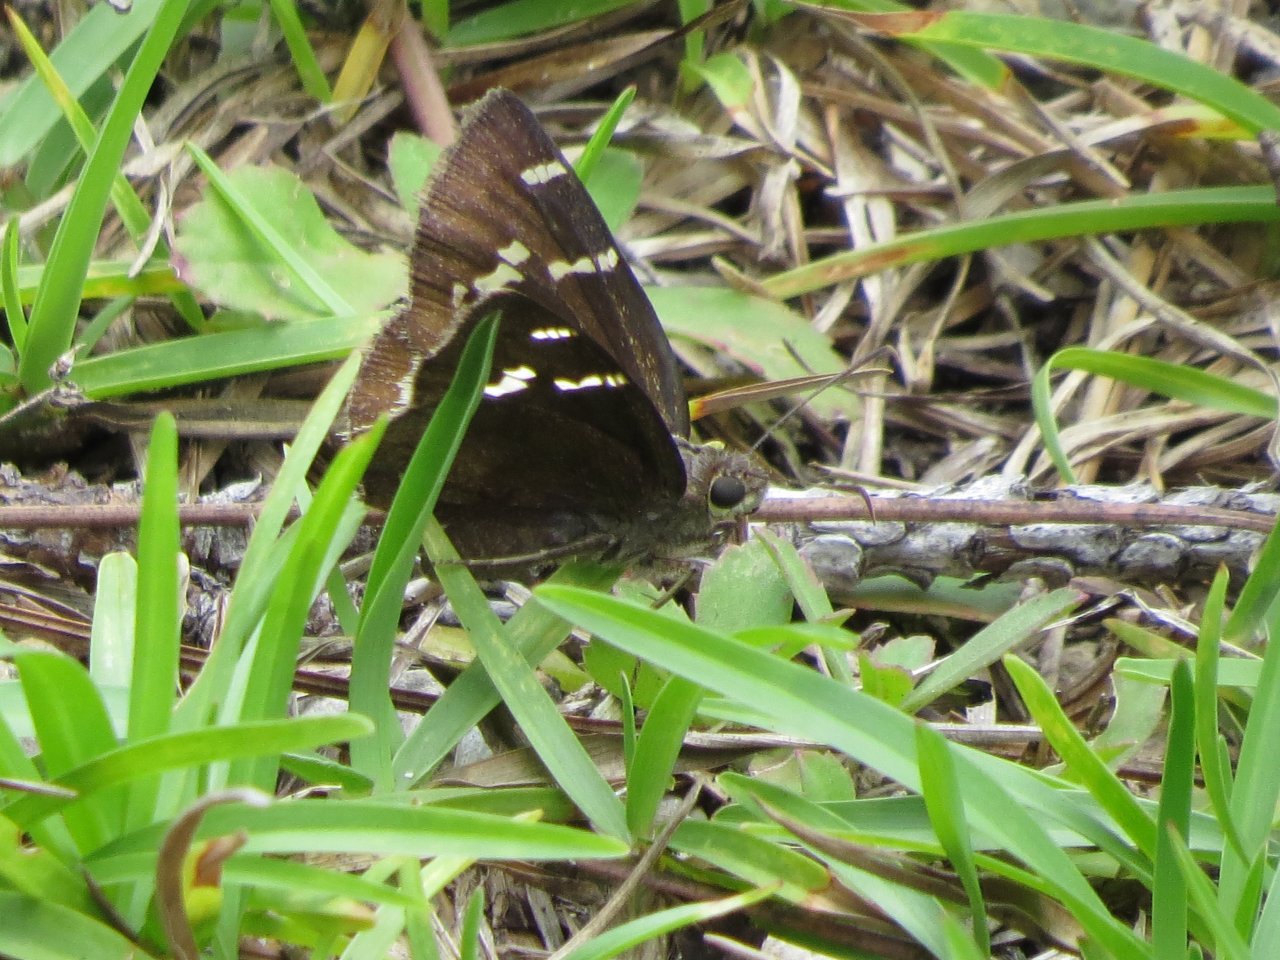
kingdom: Animalia
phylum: Arthropoda
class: Insecta
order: Lepidoptera
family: Hesperiidae
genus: Autochton
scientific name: Autochton
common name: Southern Cloudywing
